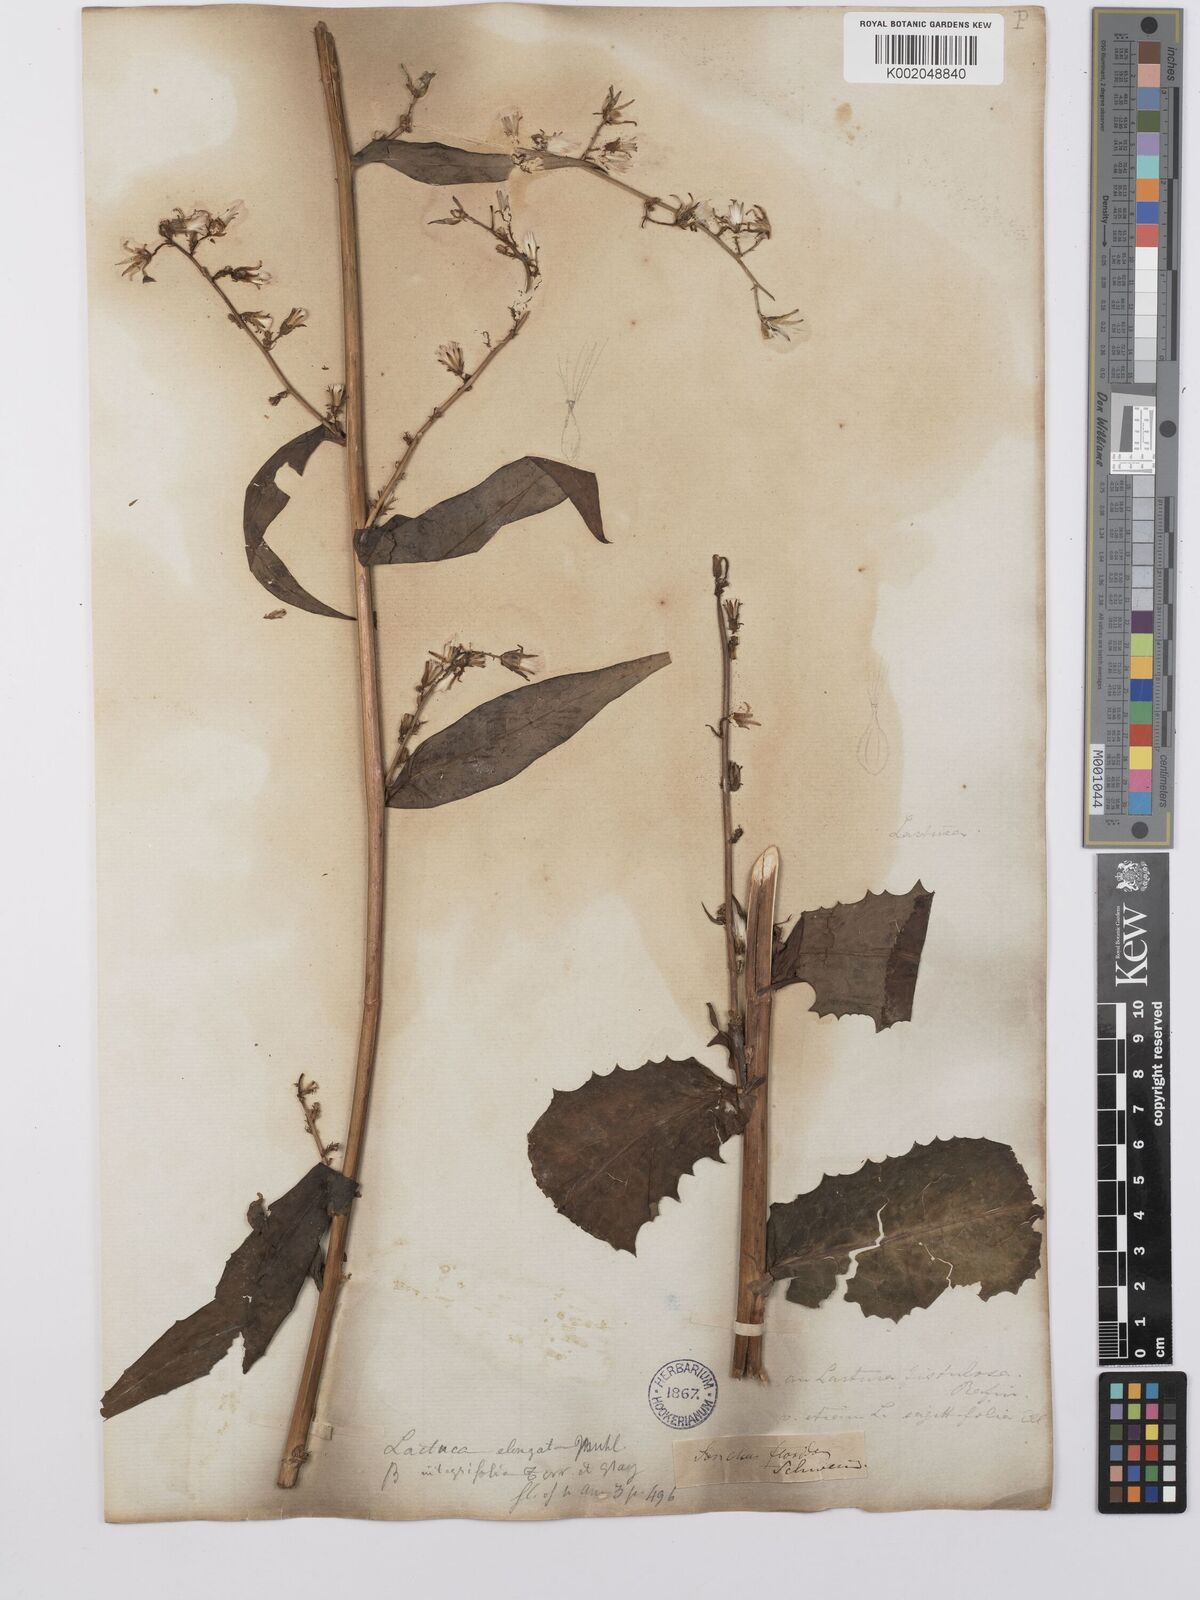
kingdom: Plantae
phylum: Tracheophyta
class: Magnoliopsida
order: Asterales
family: Asteraceae
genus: Lactuca
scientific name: Lactuca canadensis
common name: Canada lettuce
